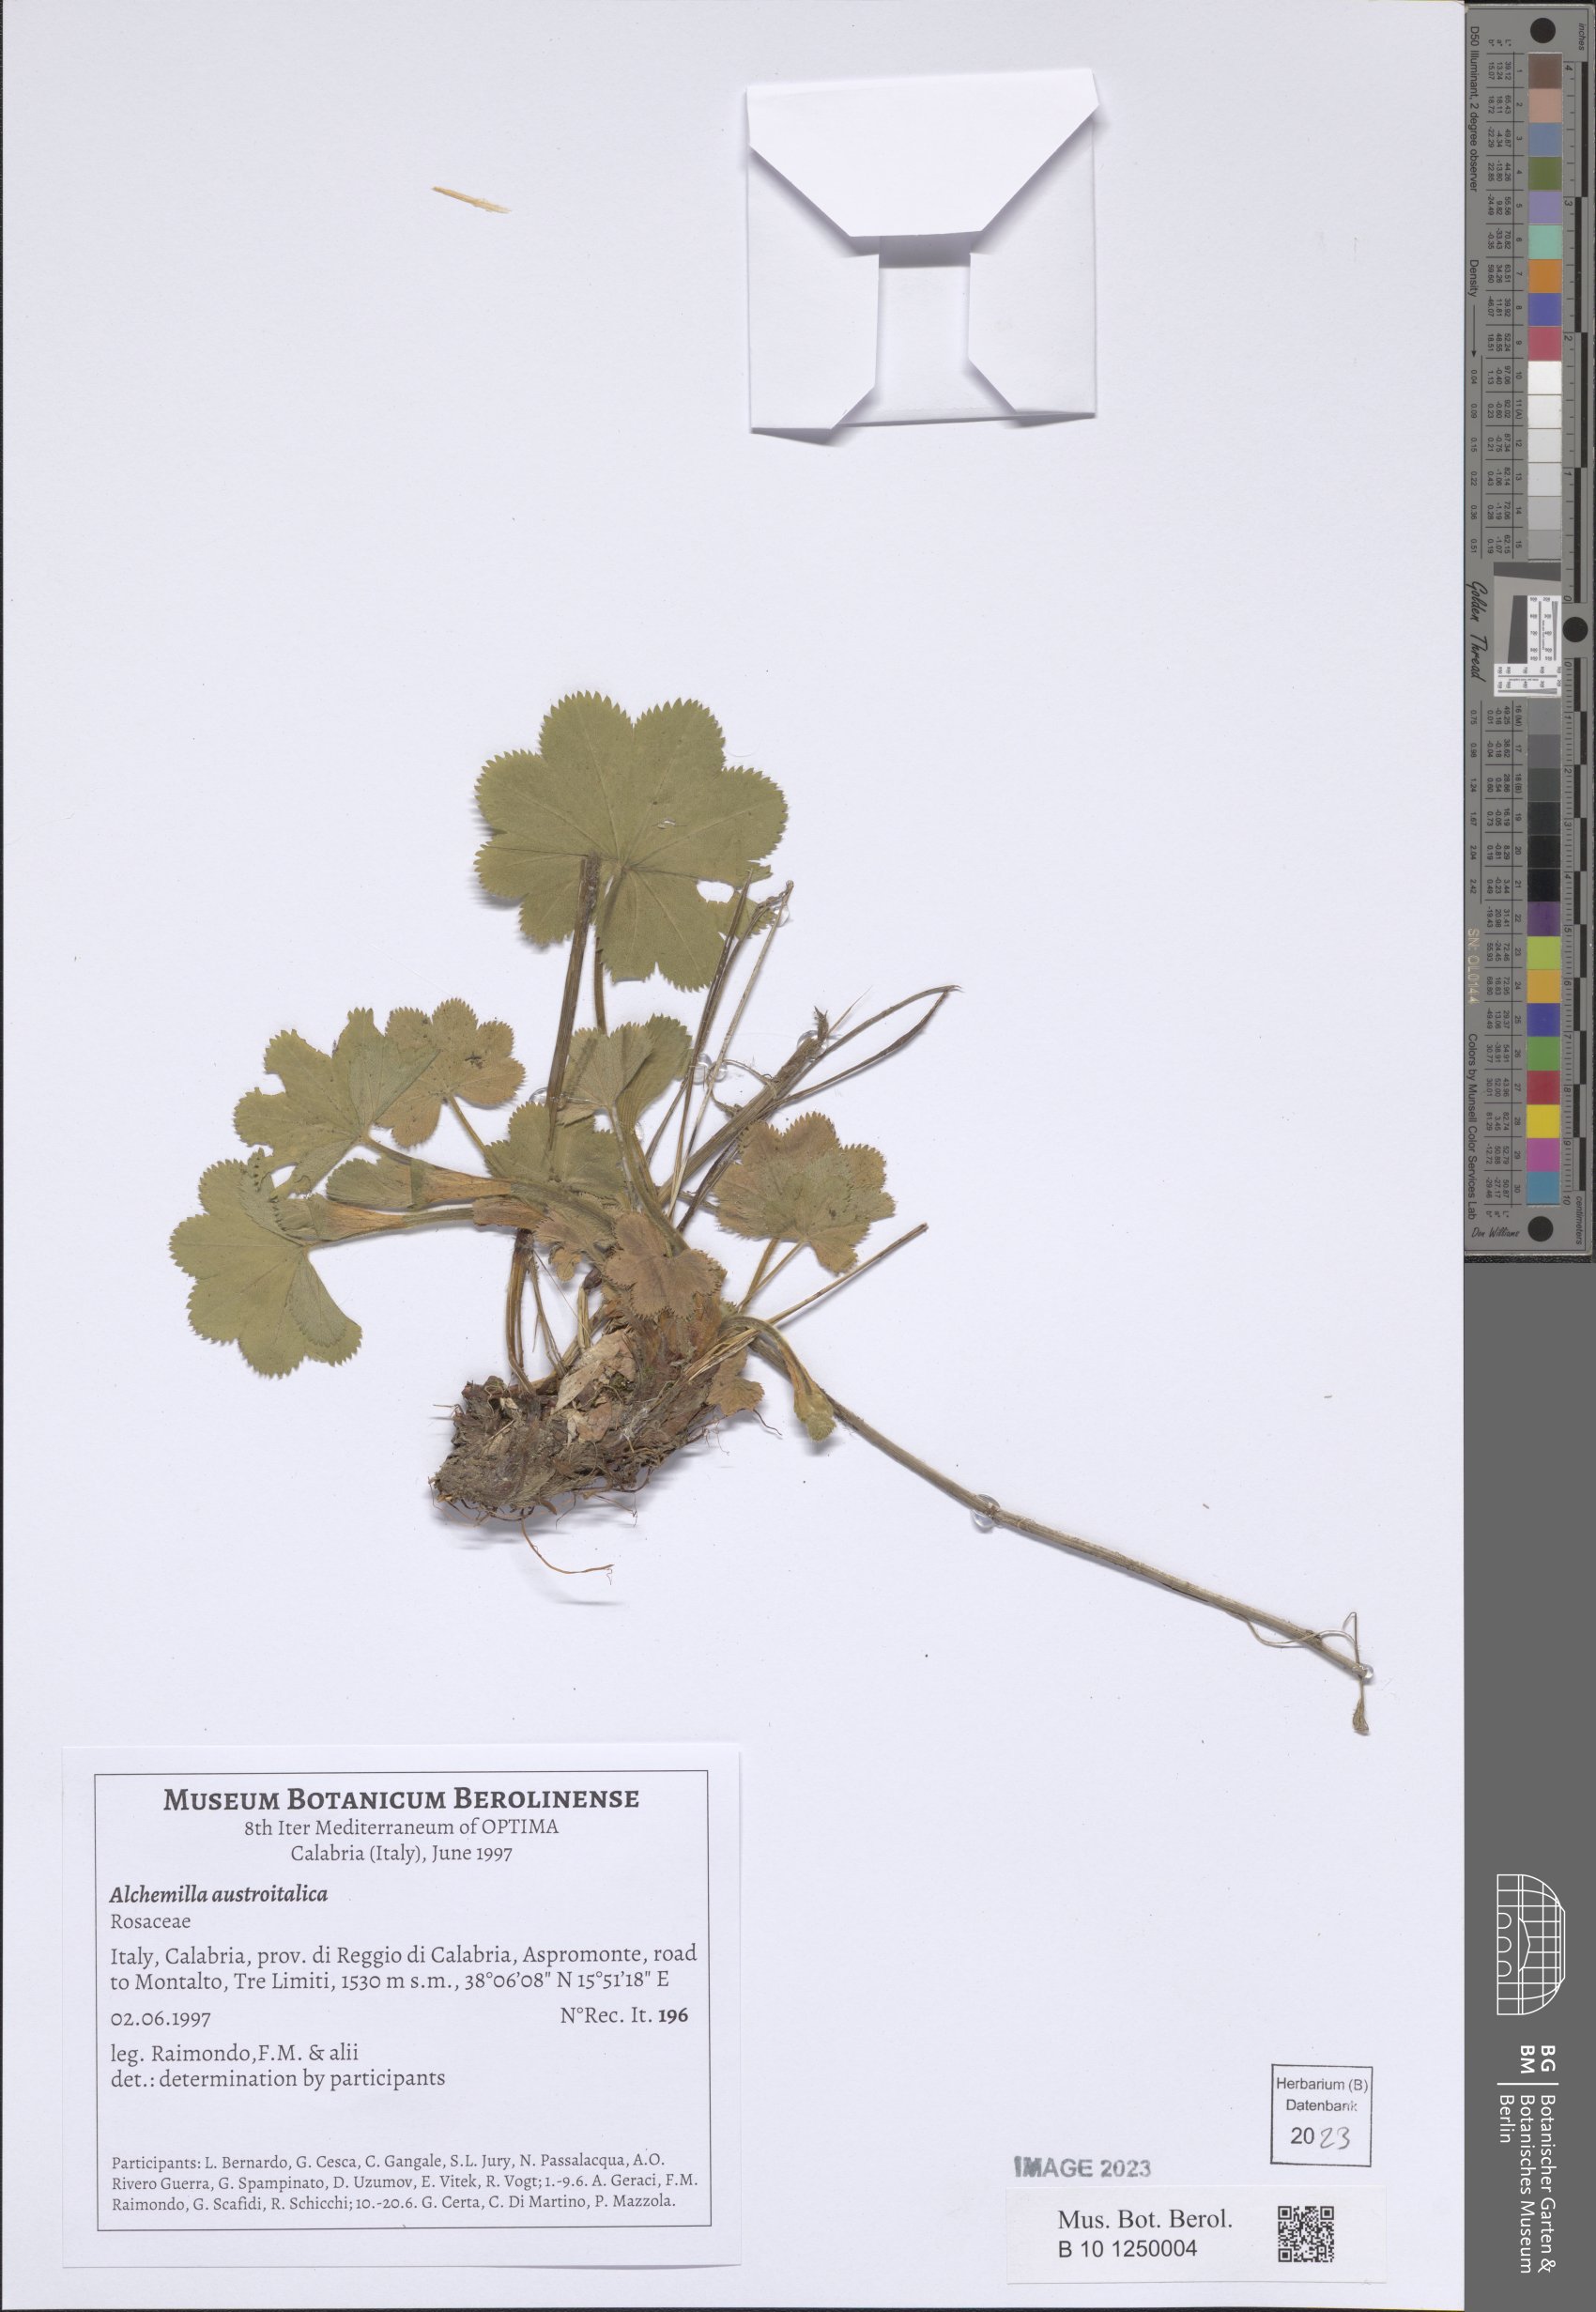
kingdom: Plantae
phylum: Tracheophyta
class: Magnoliopsida
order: Rosales
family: Rosaceae
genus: Alchemilla
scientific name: Alchemilla austroitalica
